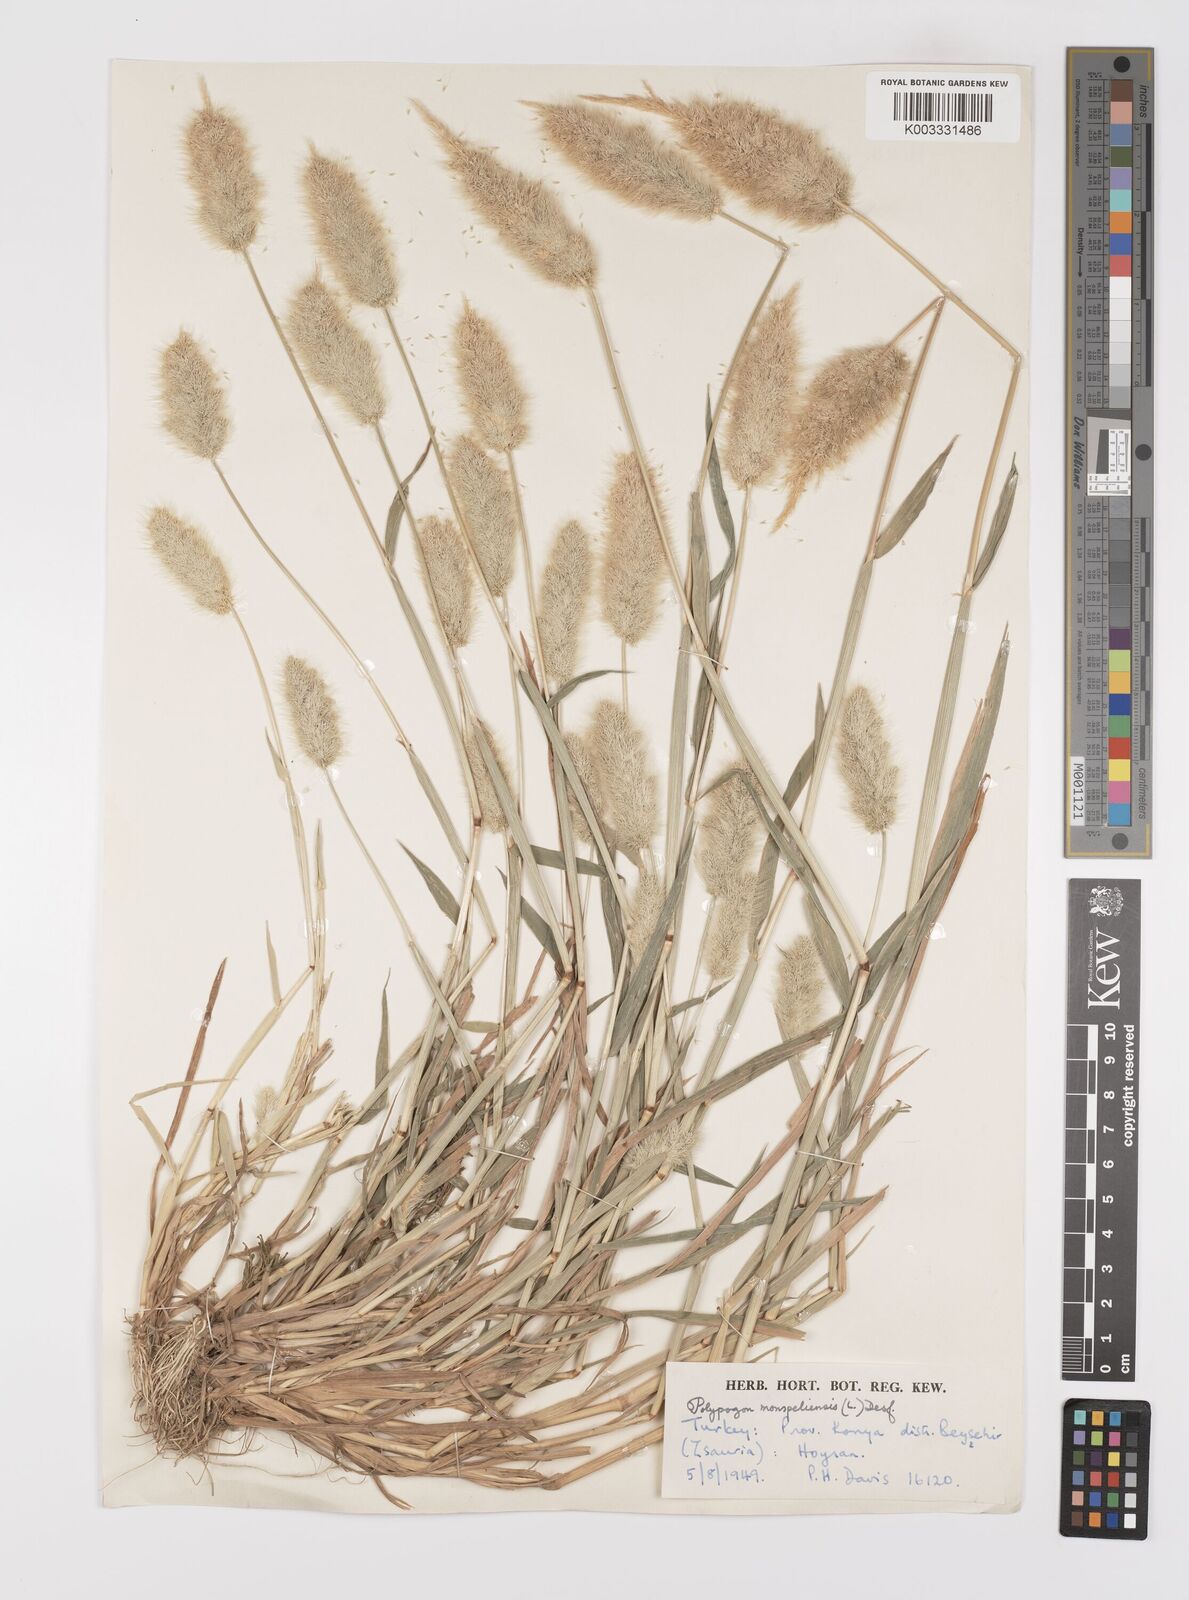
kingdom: Plantae
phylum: Tracheophyta
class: Liliopsida
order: Poales
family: Poaceae
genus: Polypogon
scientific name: Polypogon monspeliensis
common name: Annual rabbitsfoot grass
